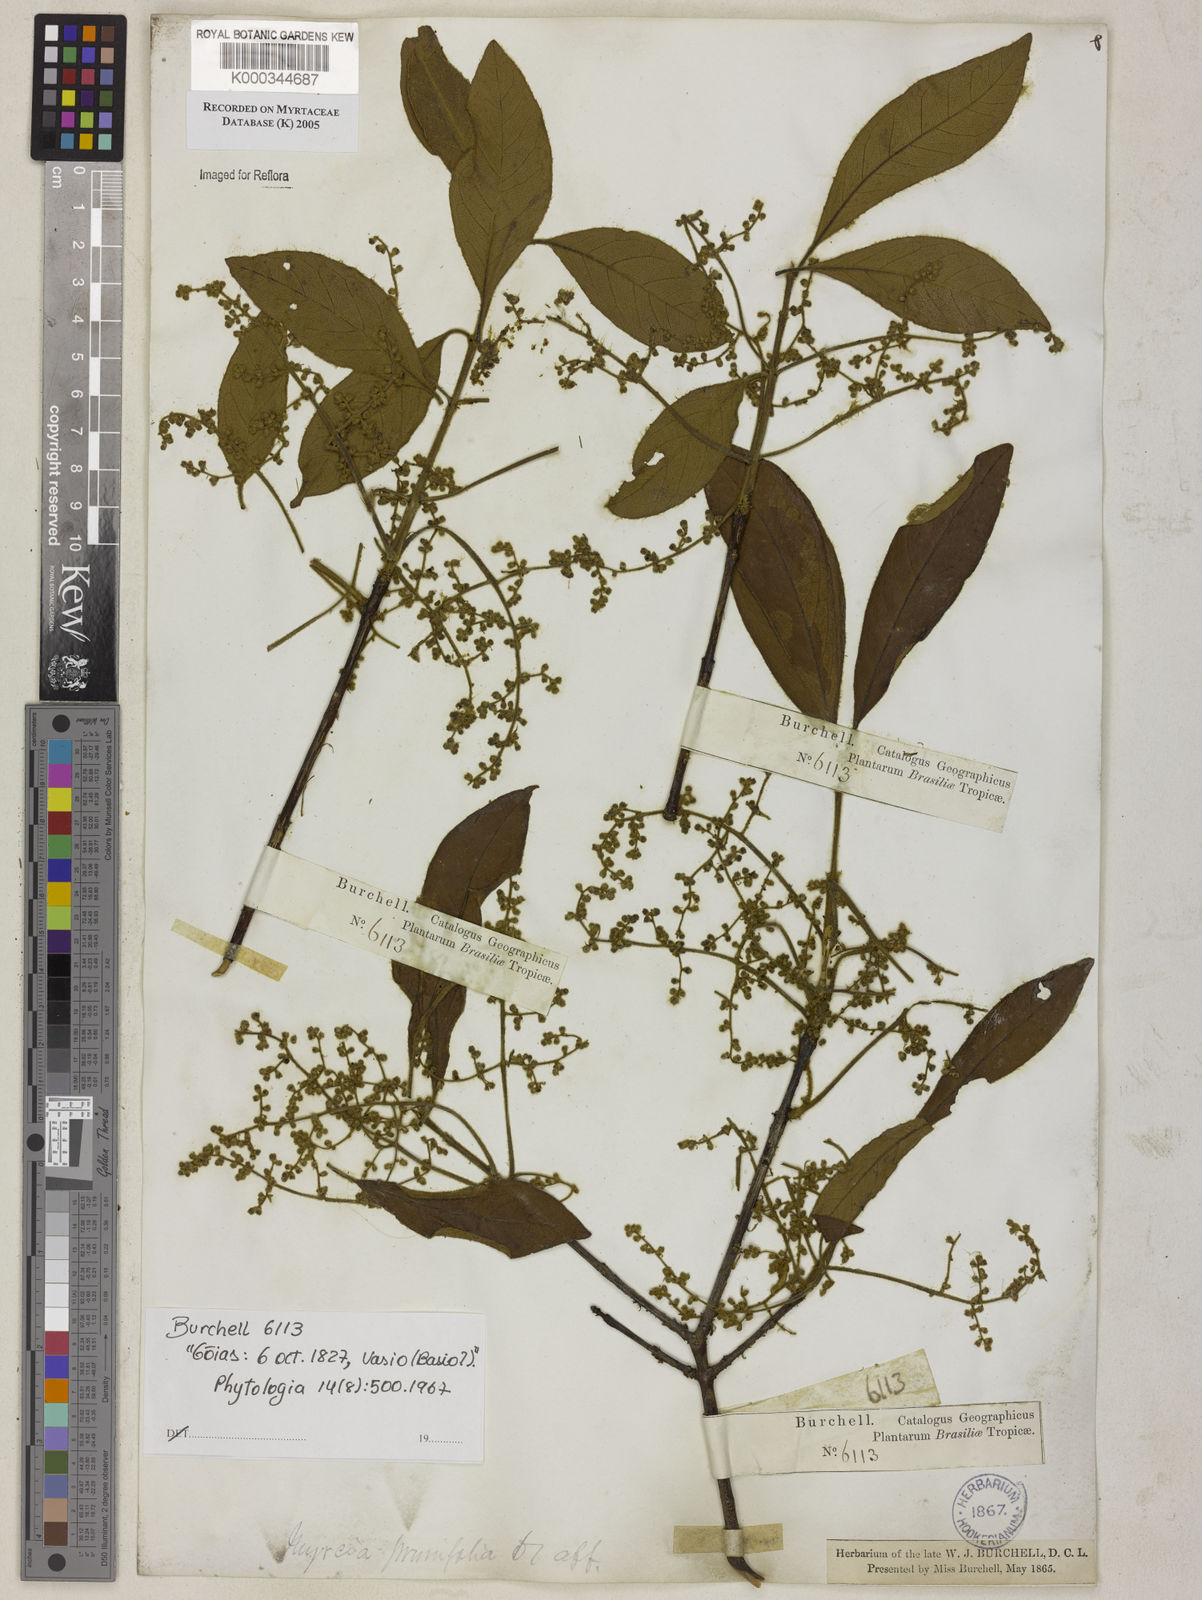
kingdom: Plantae
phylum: Tracheophyta
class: Magnoliopsida
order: Myrtales
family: Myrtaceae
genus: Myrcia
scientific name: Myrcia tomentosa
